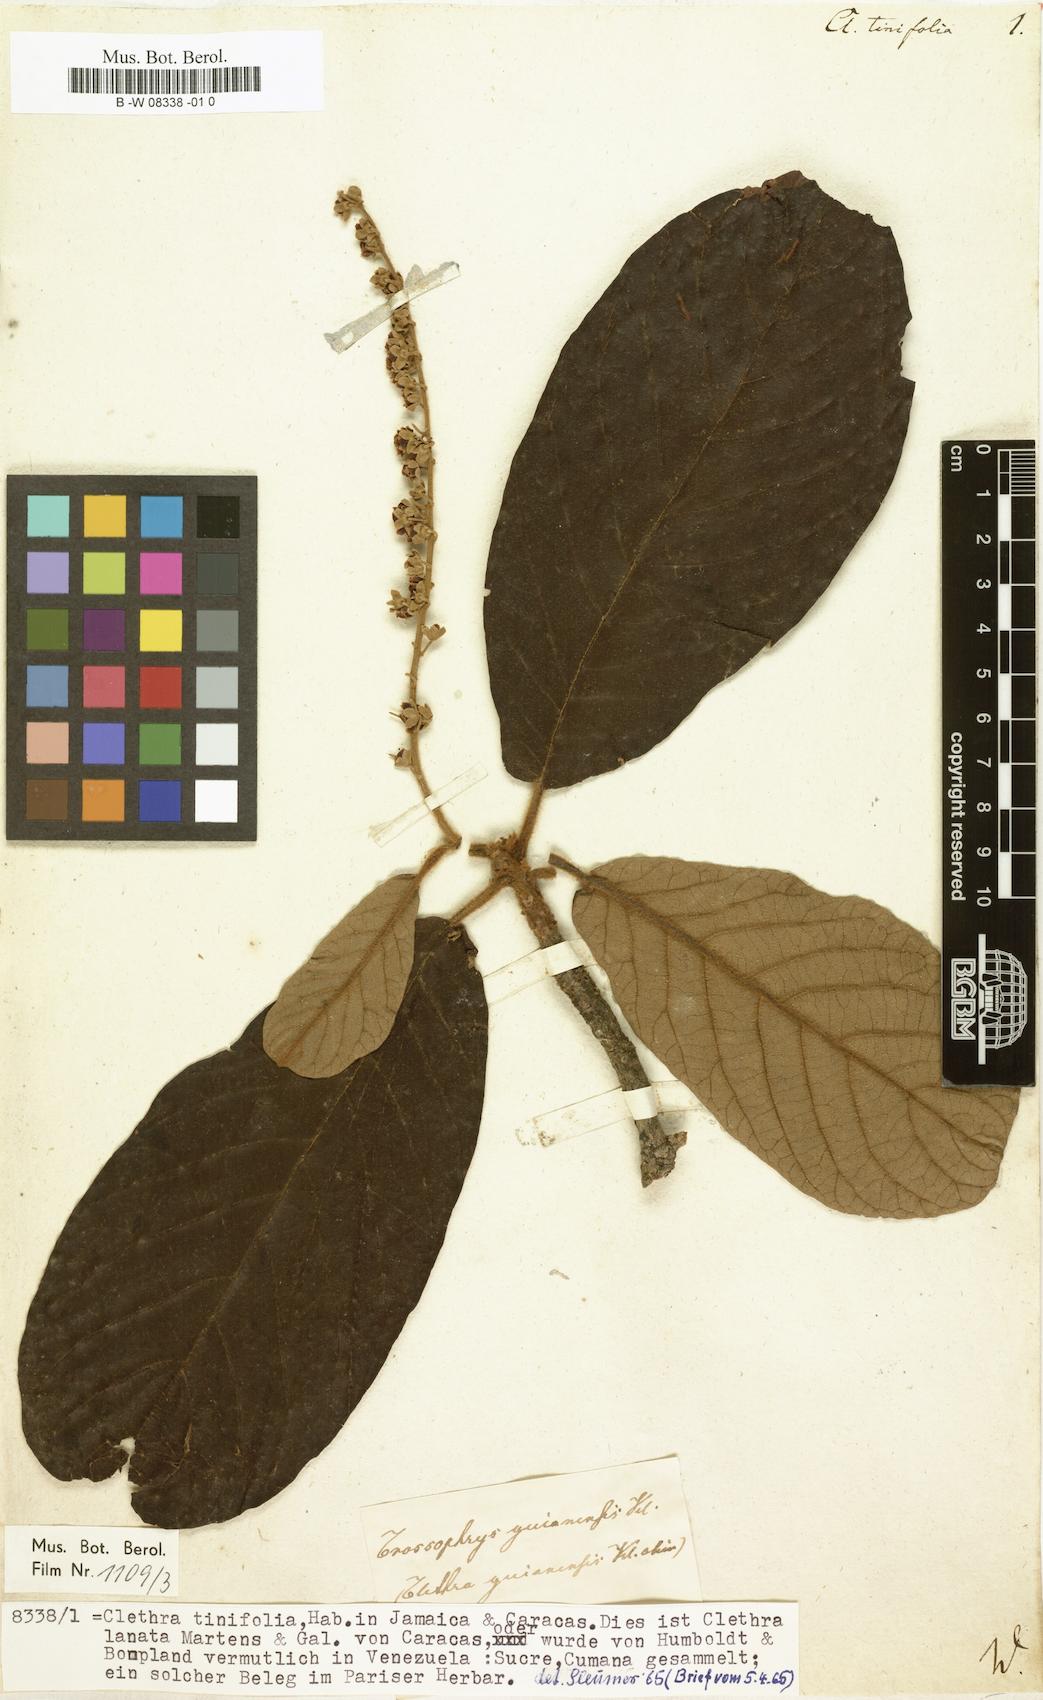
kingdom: Plantae
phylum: Tracheophyta
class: Magnoliopsida
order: Ericales
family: Clethraceae
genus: Clethra
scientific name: Clethra tinifolia
